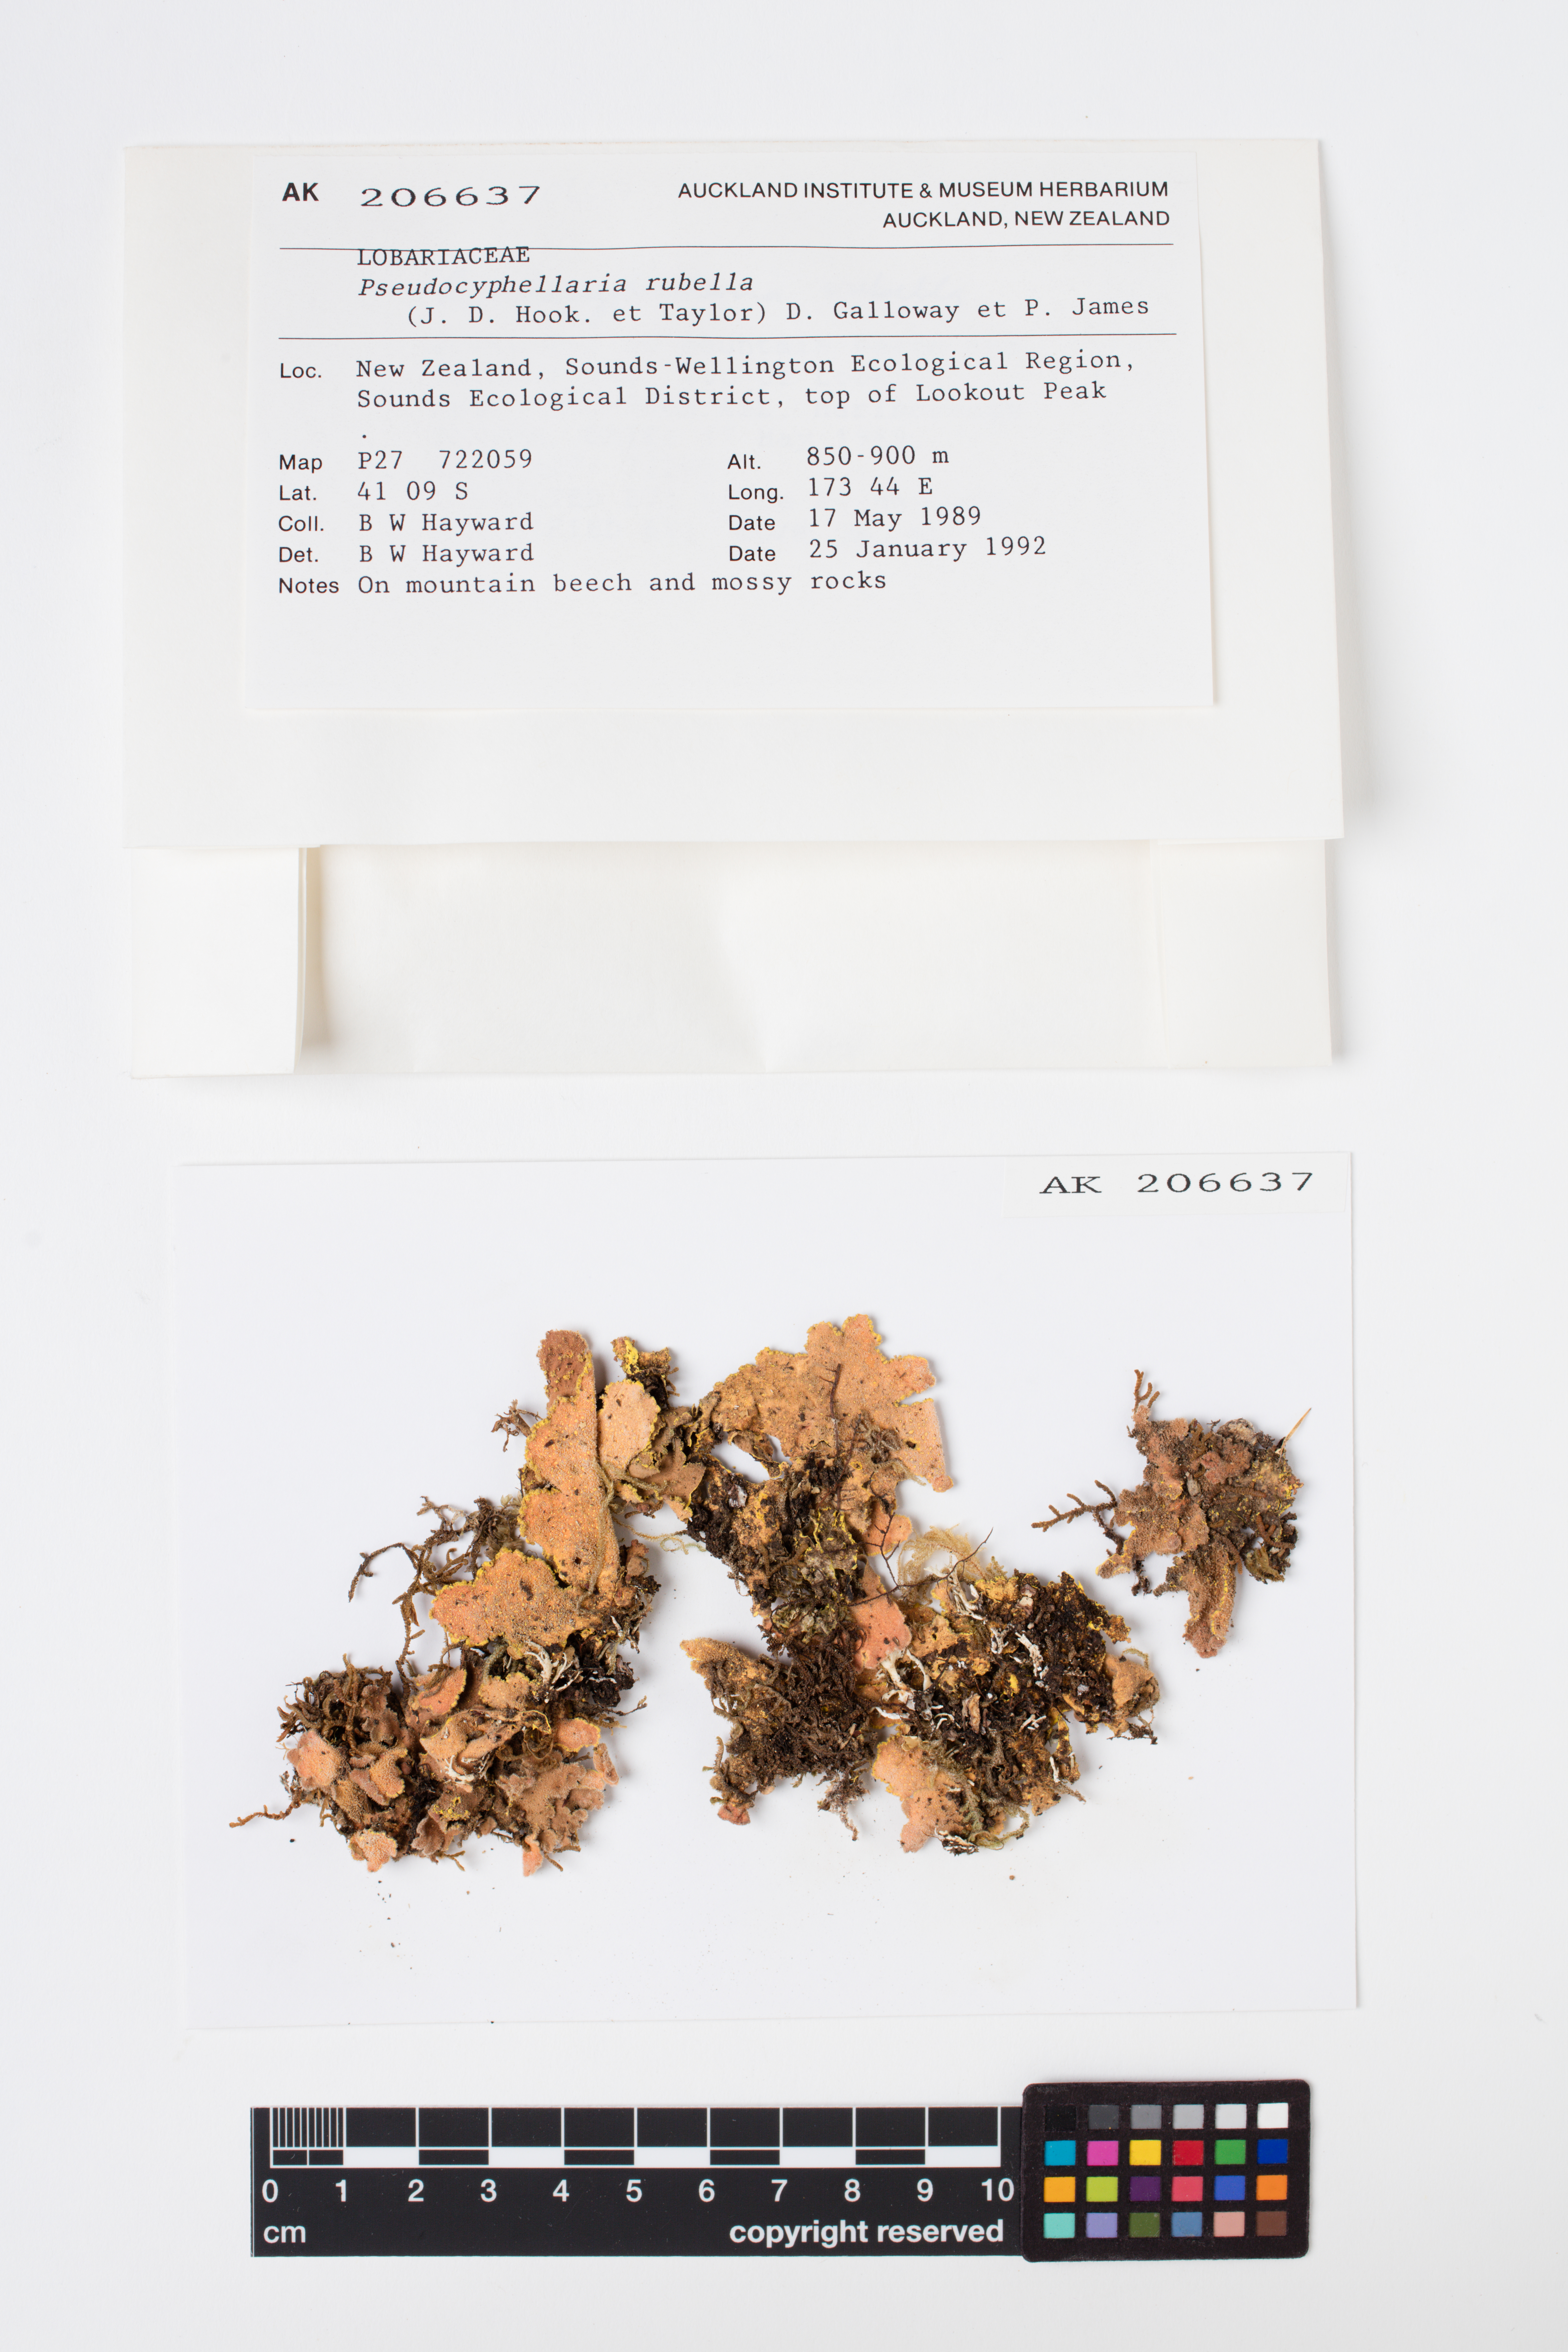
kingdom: Fungi
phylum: Ascomycota
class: Lecanoromycetes
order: Peltigerales
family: Lobariaceae
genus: Pseudocyphellaria
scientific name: Pseudocyphellaria rubella
